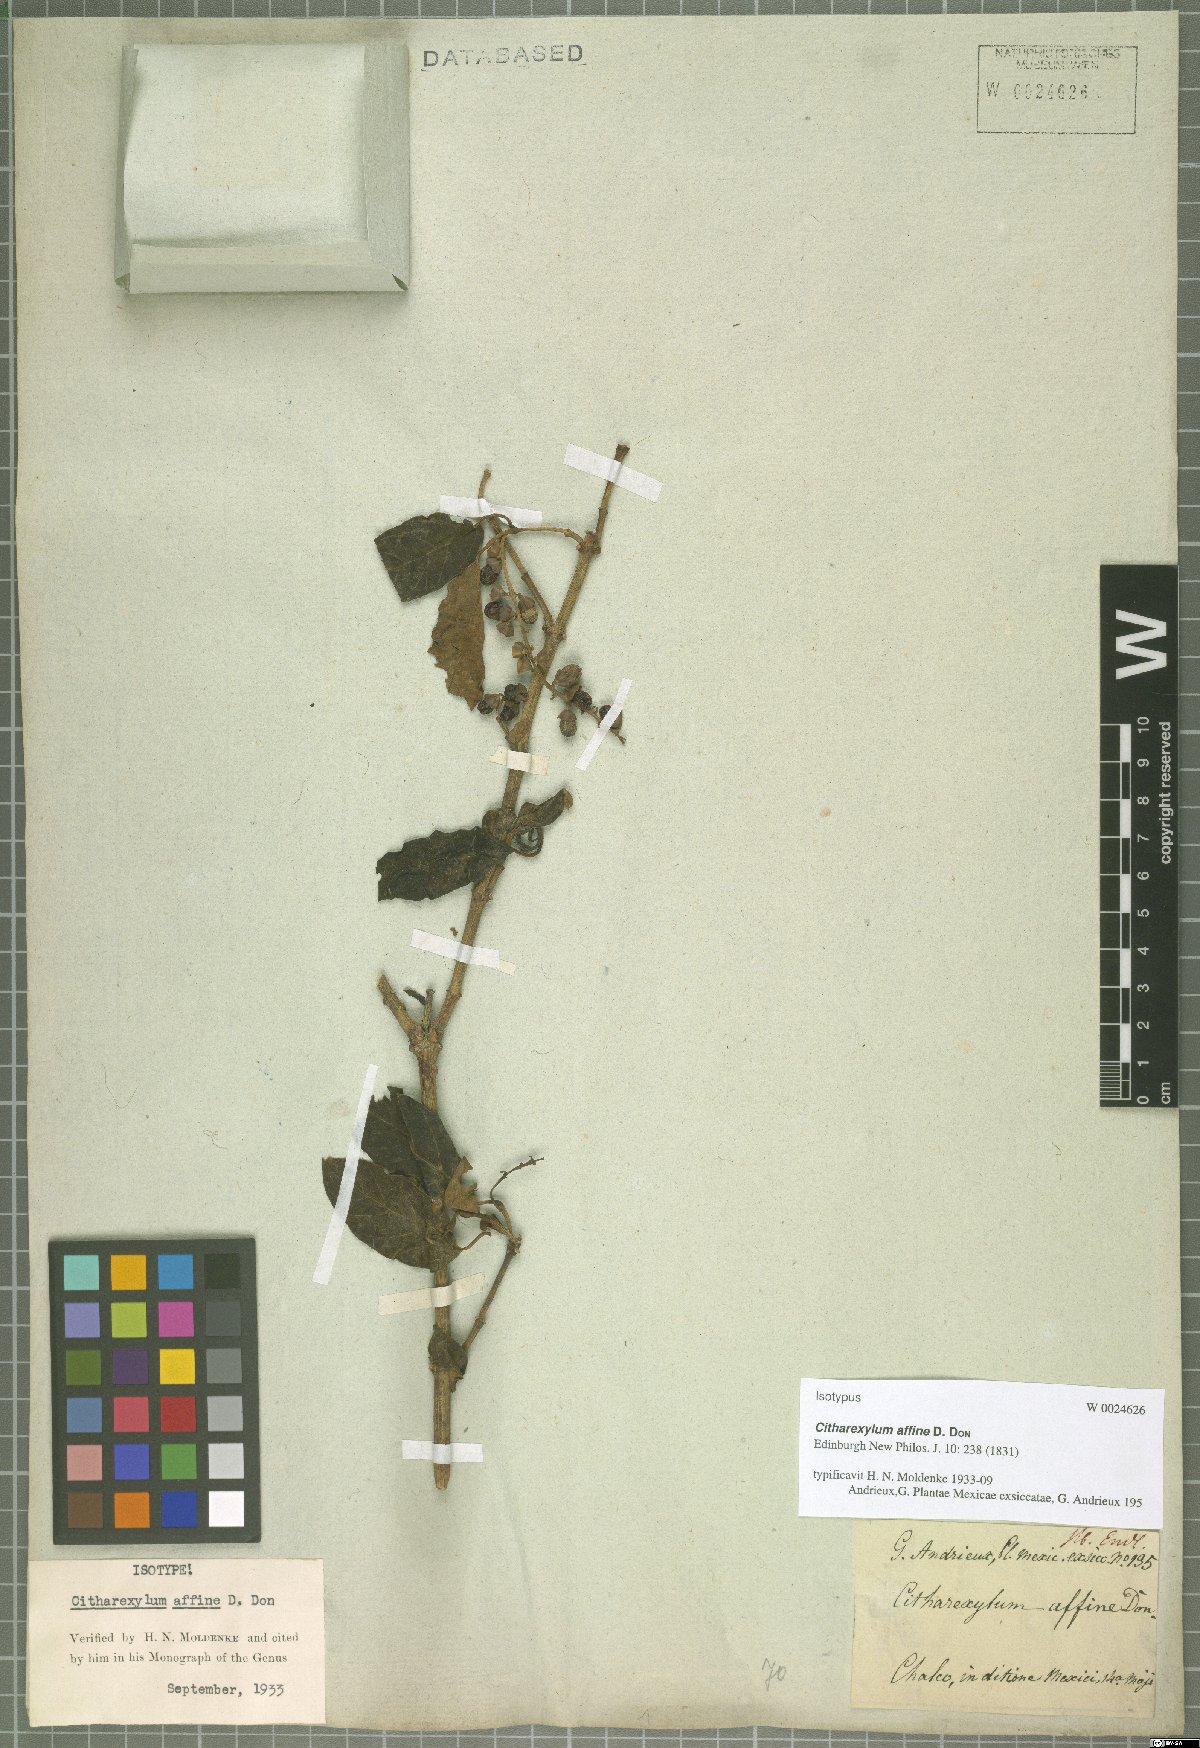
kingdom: Plantae
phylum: Tracheophyta
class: Magnoliopsida
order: Lamiales
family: Verbenaceae
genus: Citharexylum
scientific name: Citharexylum affine
